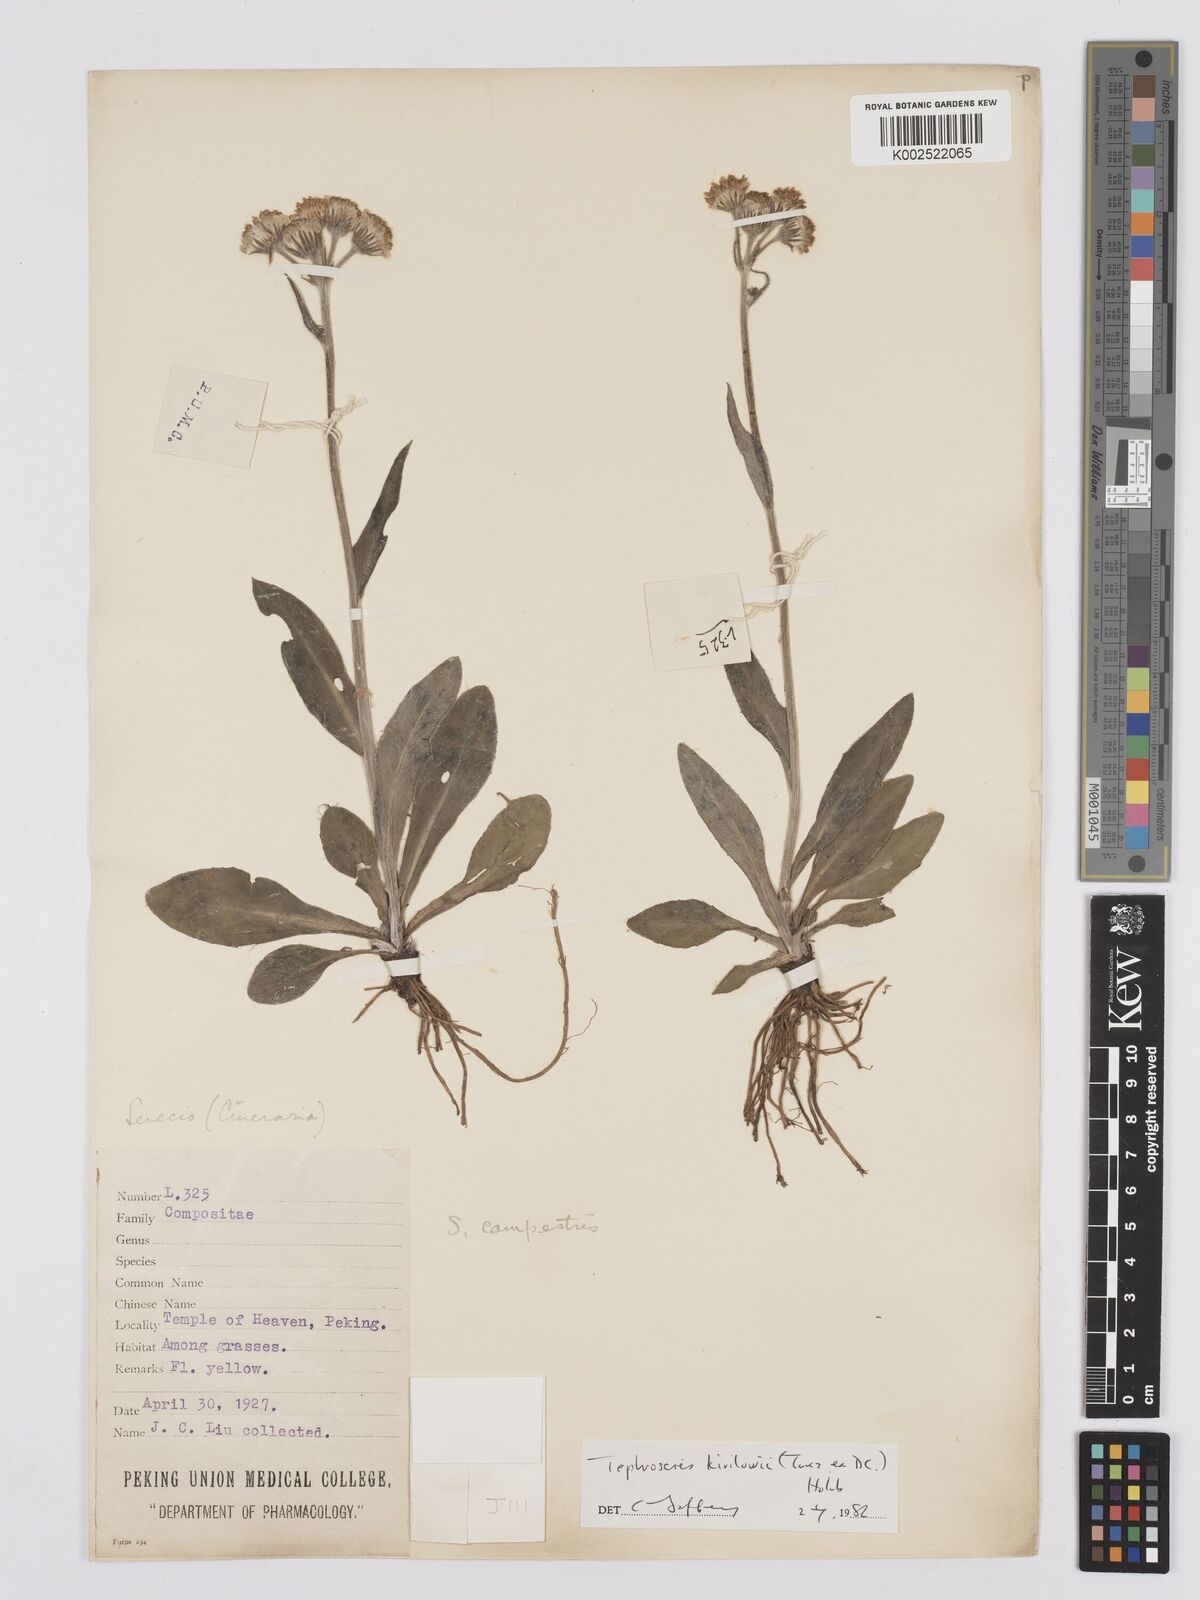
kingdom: Plantae
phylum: Tracheophyta
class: Magnoliopsida
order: Asterales
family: Asteraceae
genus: Tephroseris
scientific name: Tephroseris kirilowii
